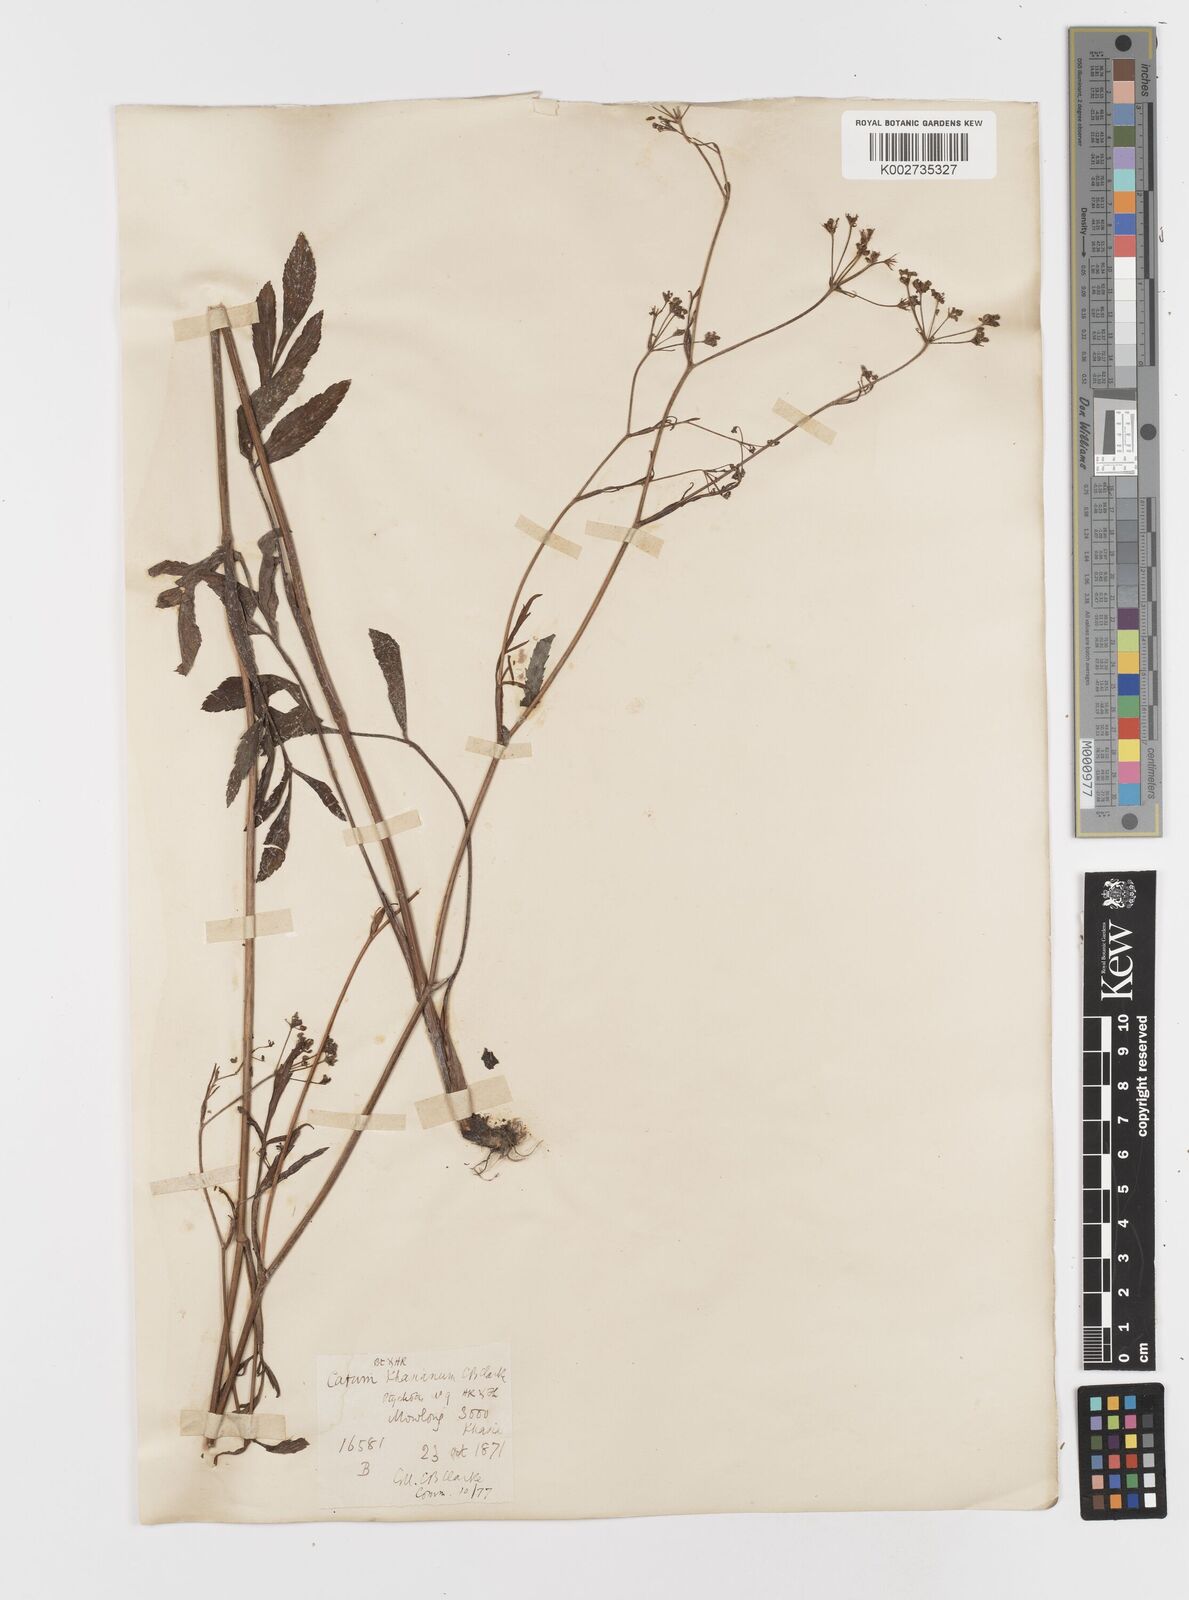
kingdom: Plantae
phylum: Tracheophyta
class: Magnoliopsida
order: Apiales
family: Apiaceae
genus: Trachyspermum
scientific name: Trachyspermum khasianum
